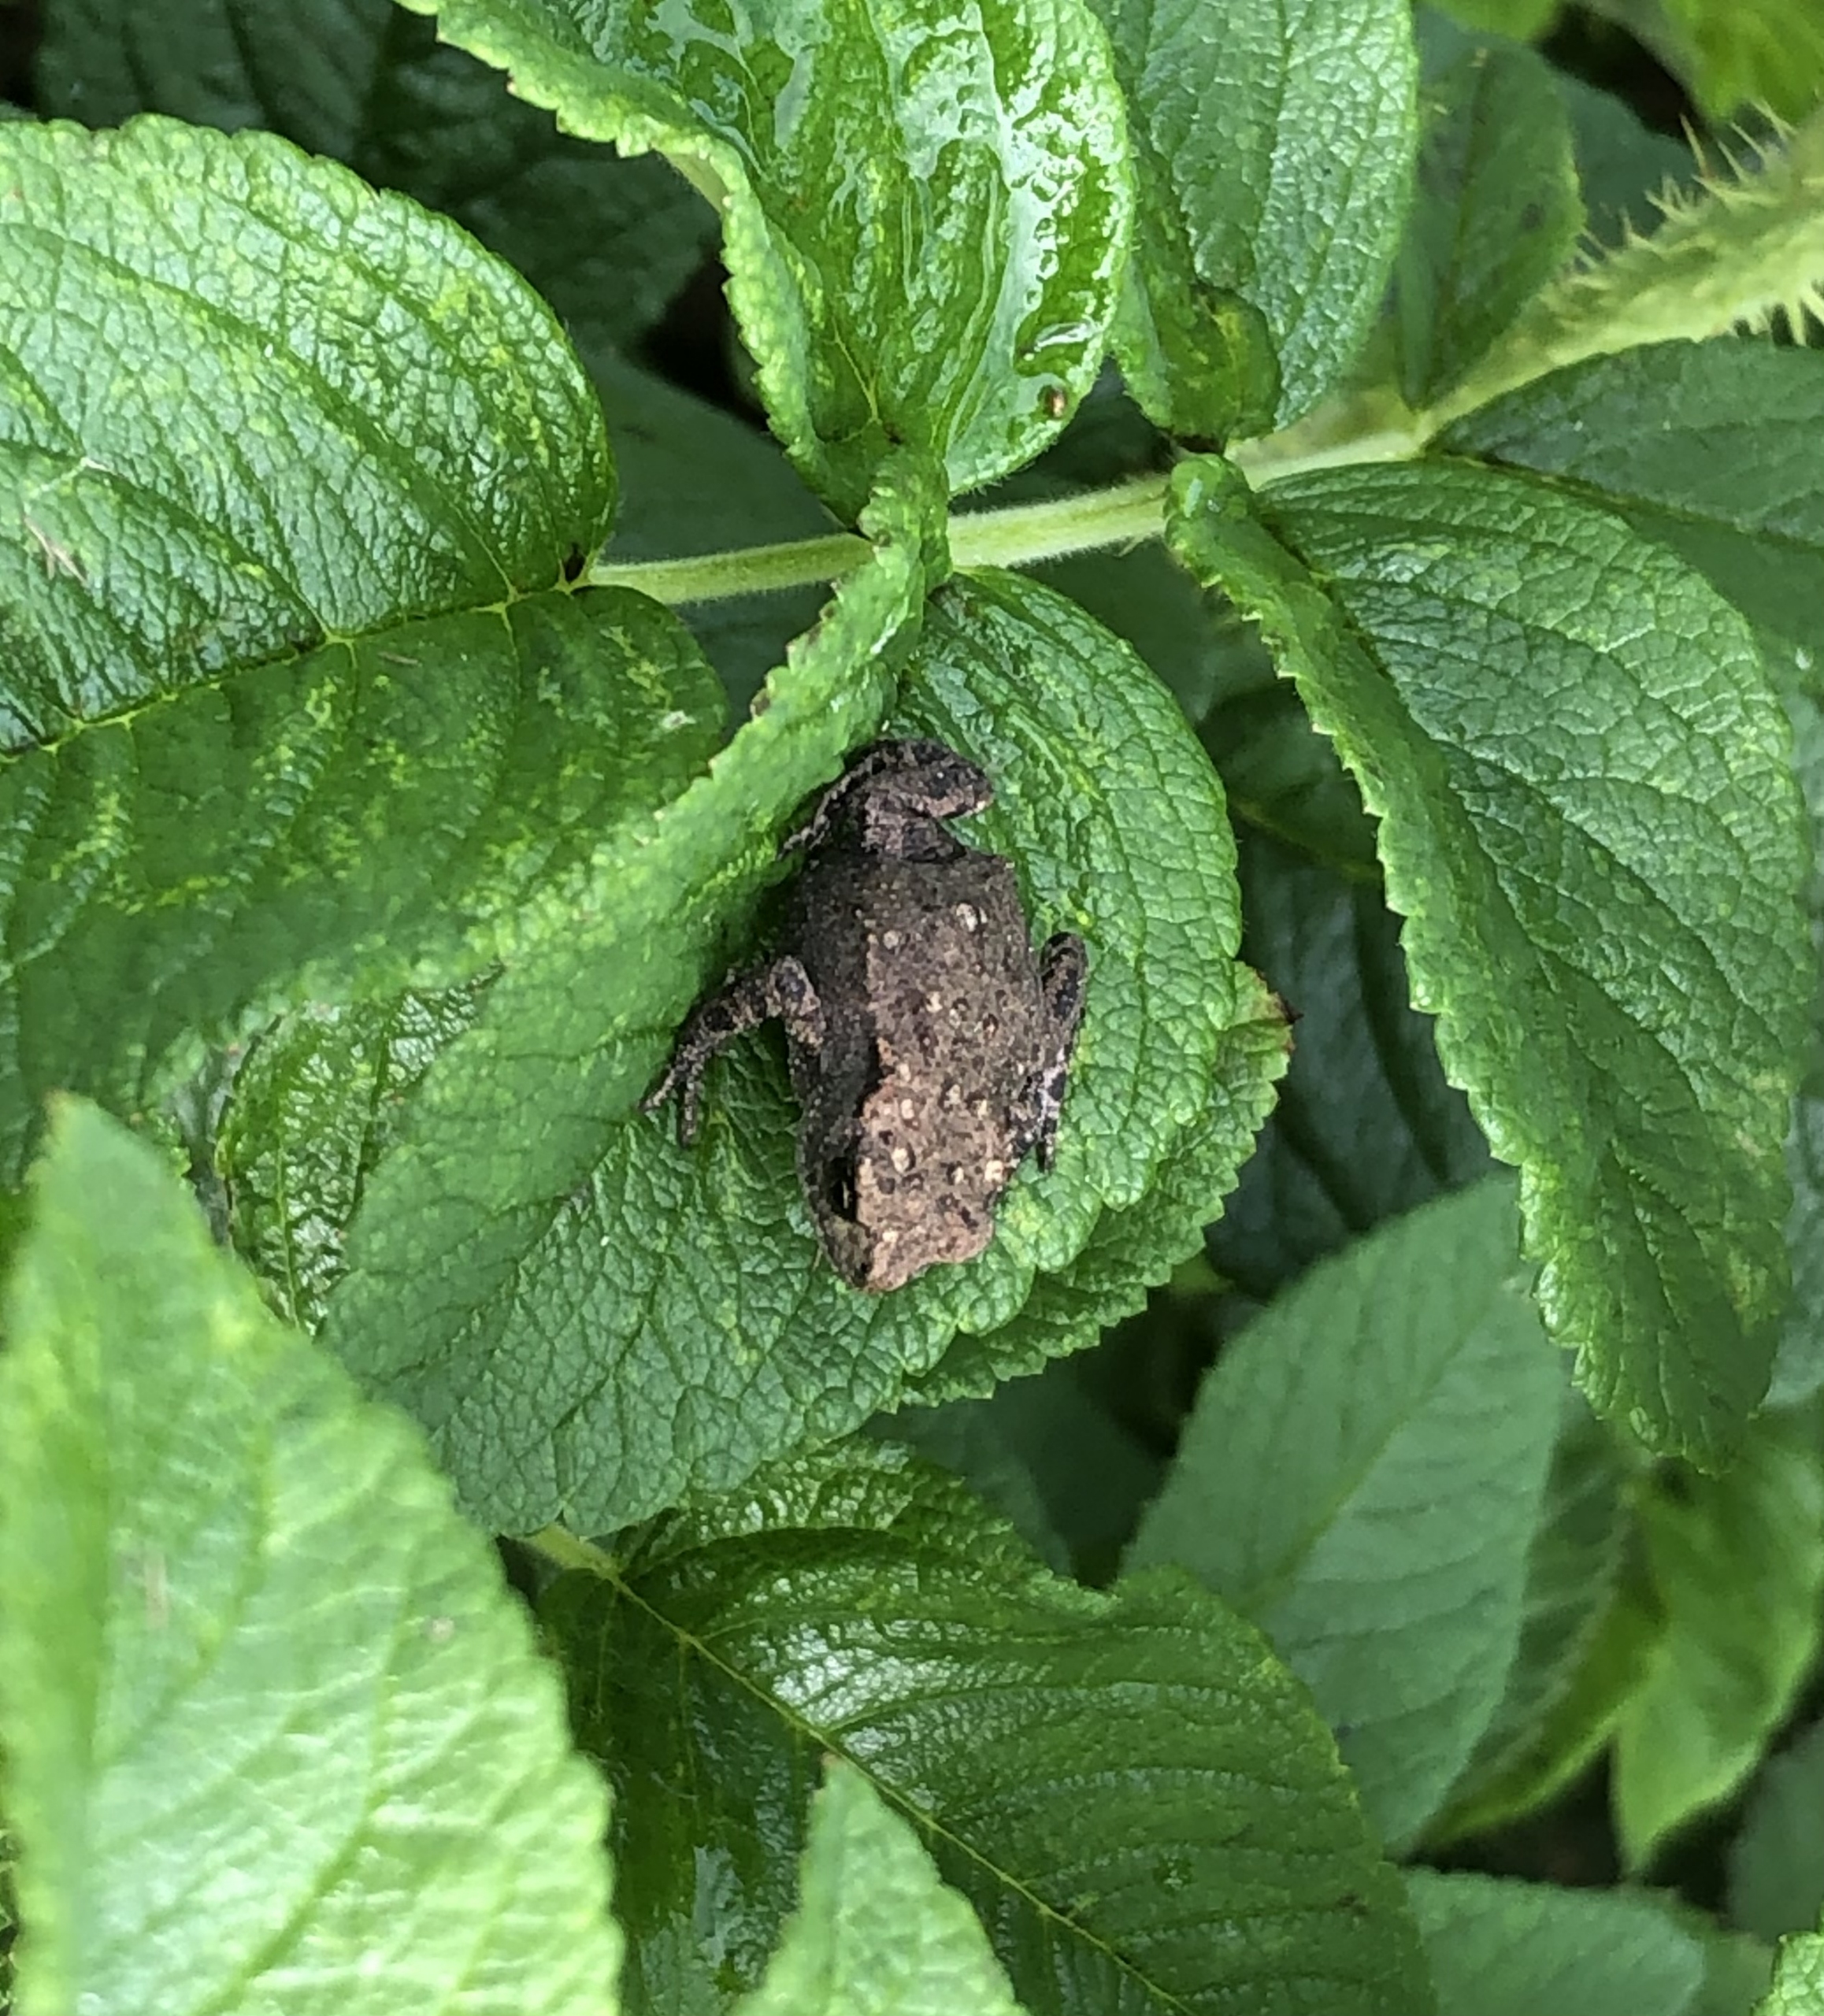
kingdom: Animalia
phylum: Chordata
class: Amphibia
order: Anura
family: Bufonidae
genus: Bufo
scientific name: Bufo bufo
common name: Skrubtudse
